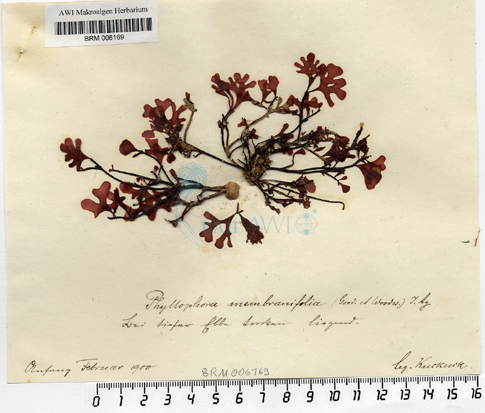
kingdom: Plantae
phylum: Rhodophyta
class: Florideophyceae
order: Gigartinales
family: Phyllophoraceae
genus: Phyllophora
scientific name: Phyllophora
